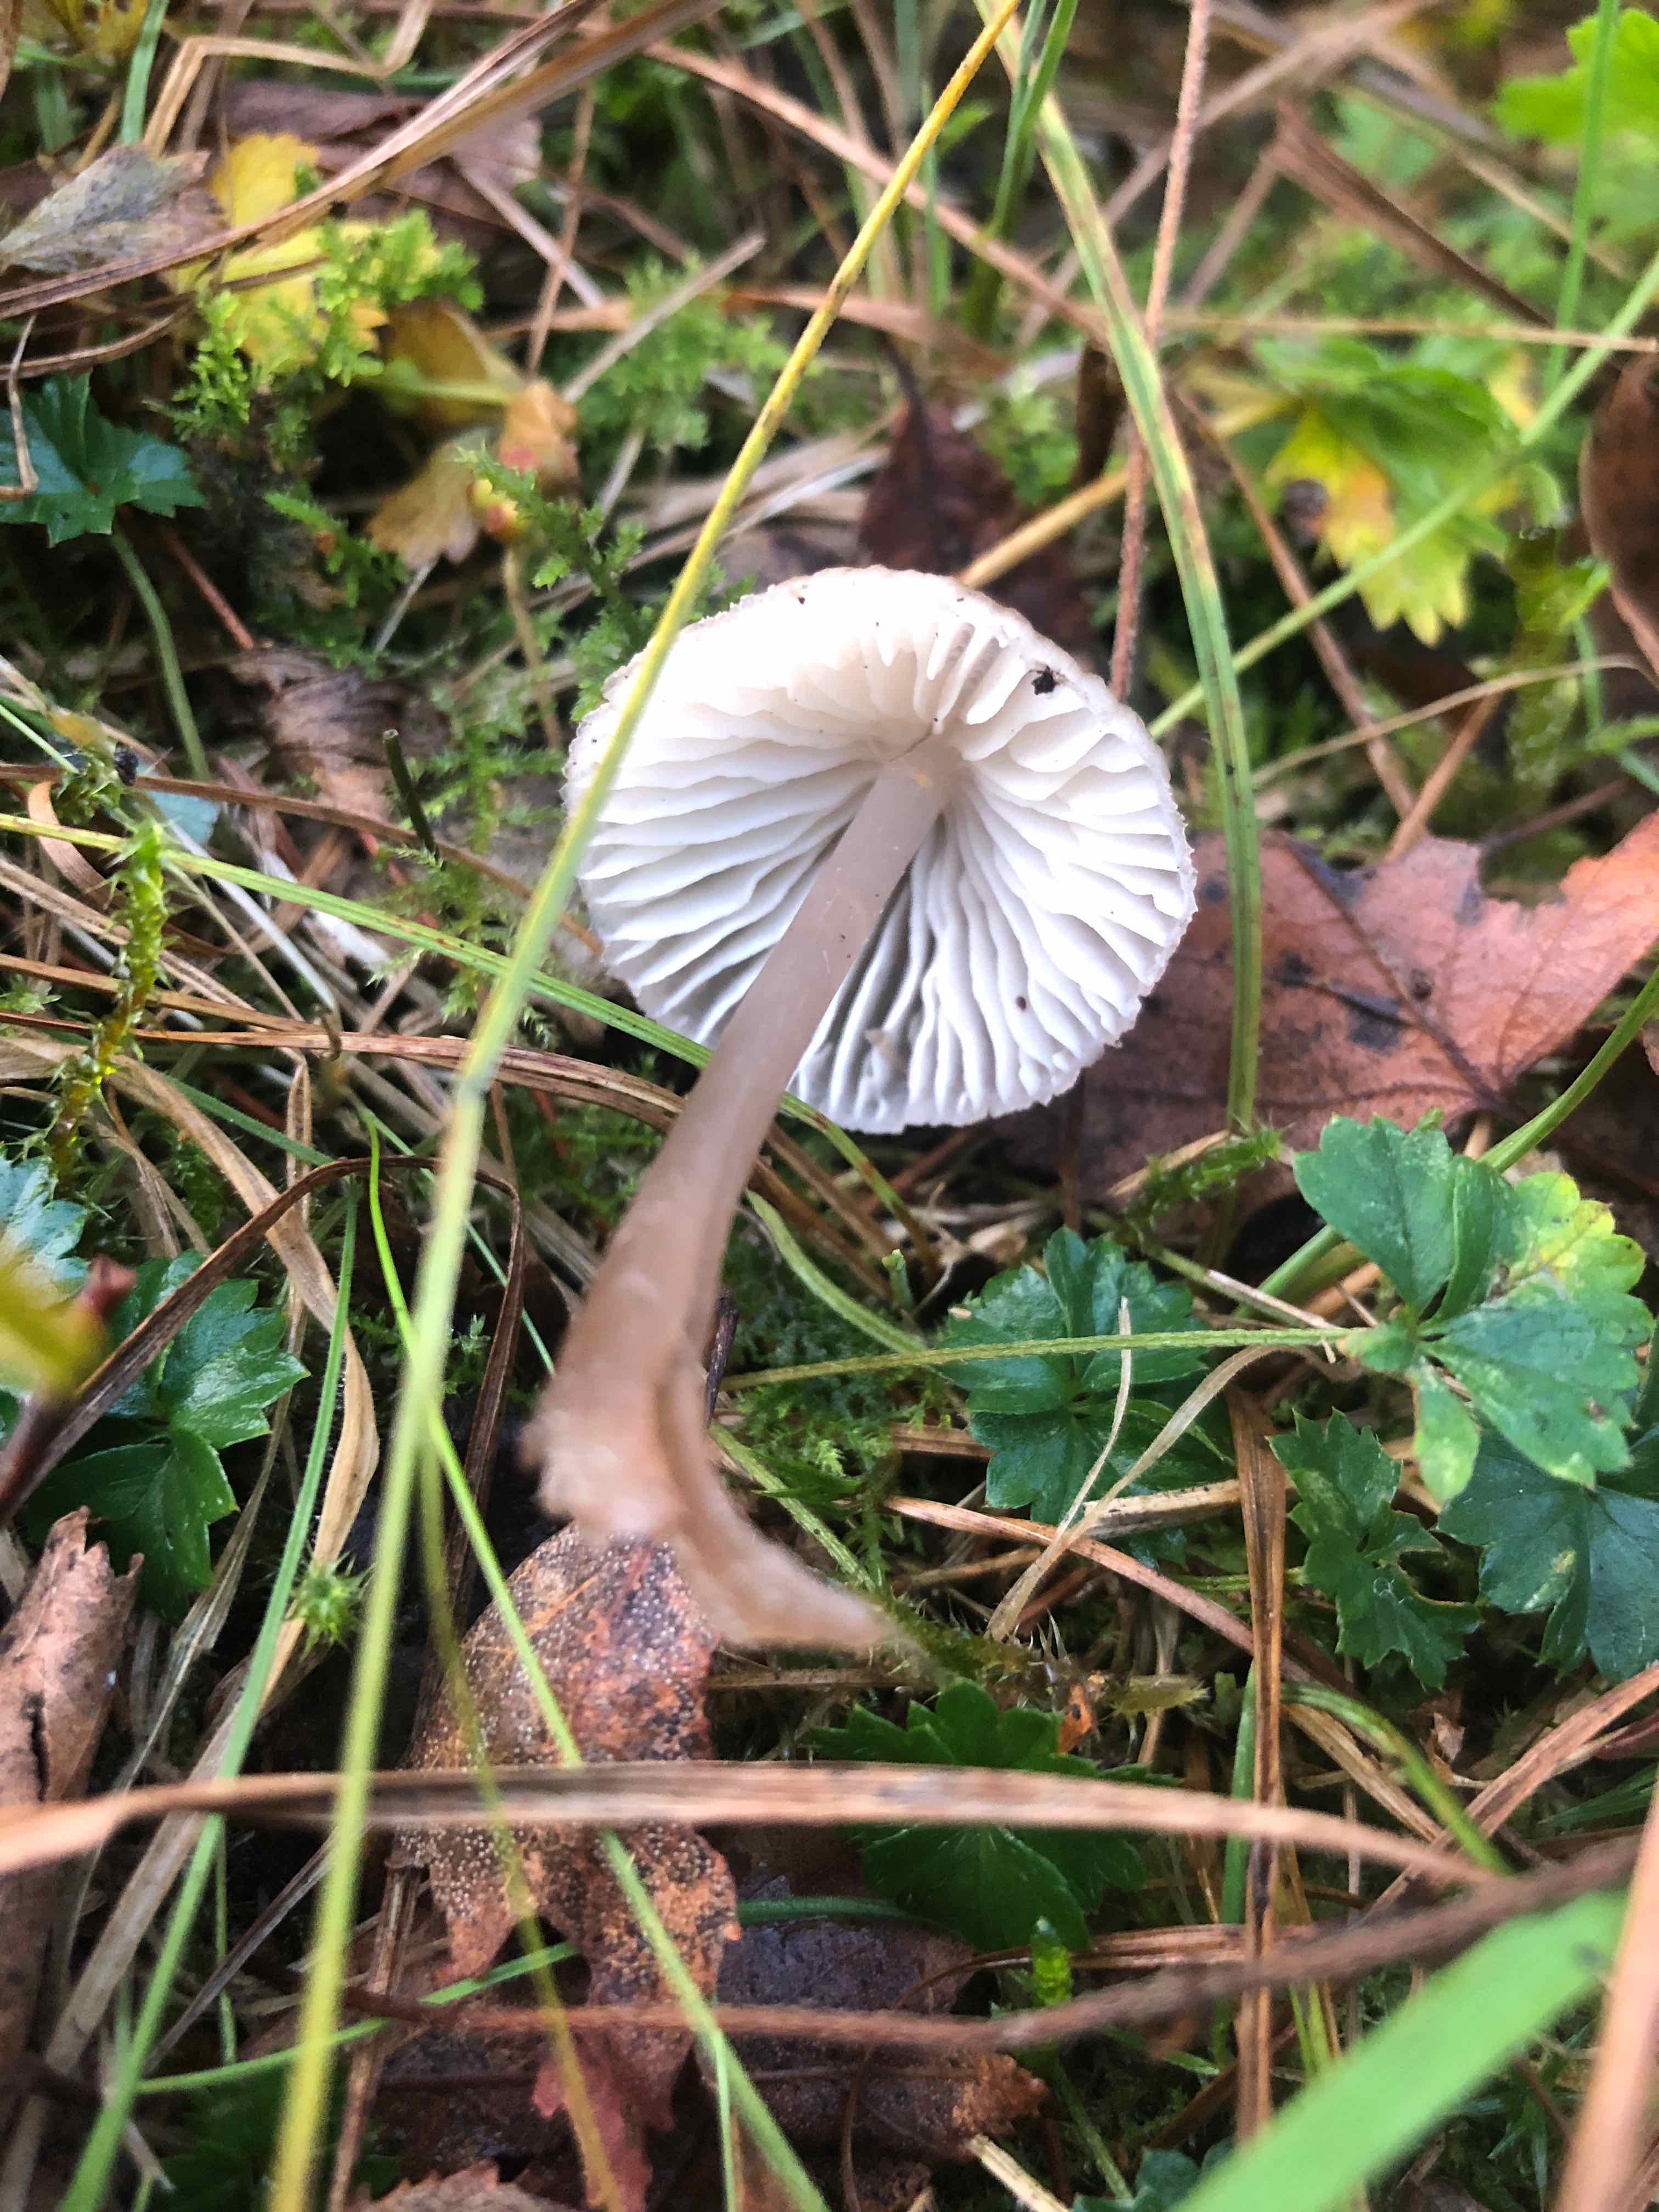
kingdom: Fungi
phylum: Basidiomycota
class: Agaricomycetes
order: Agaricales
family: Mycenaceae
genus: Mycena
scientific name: Mycena
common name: huesvamp
